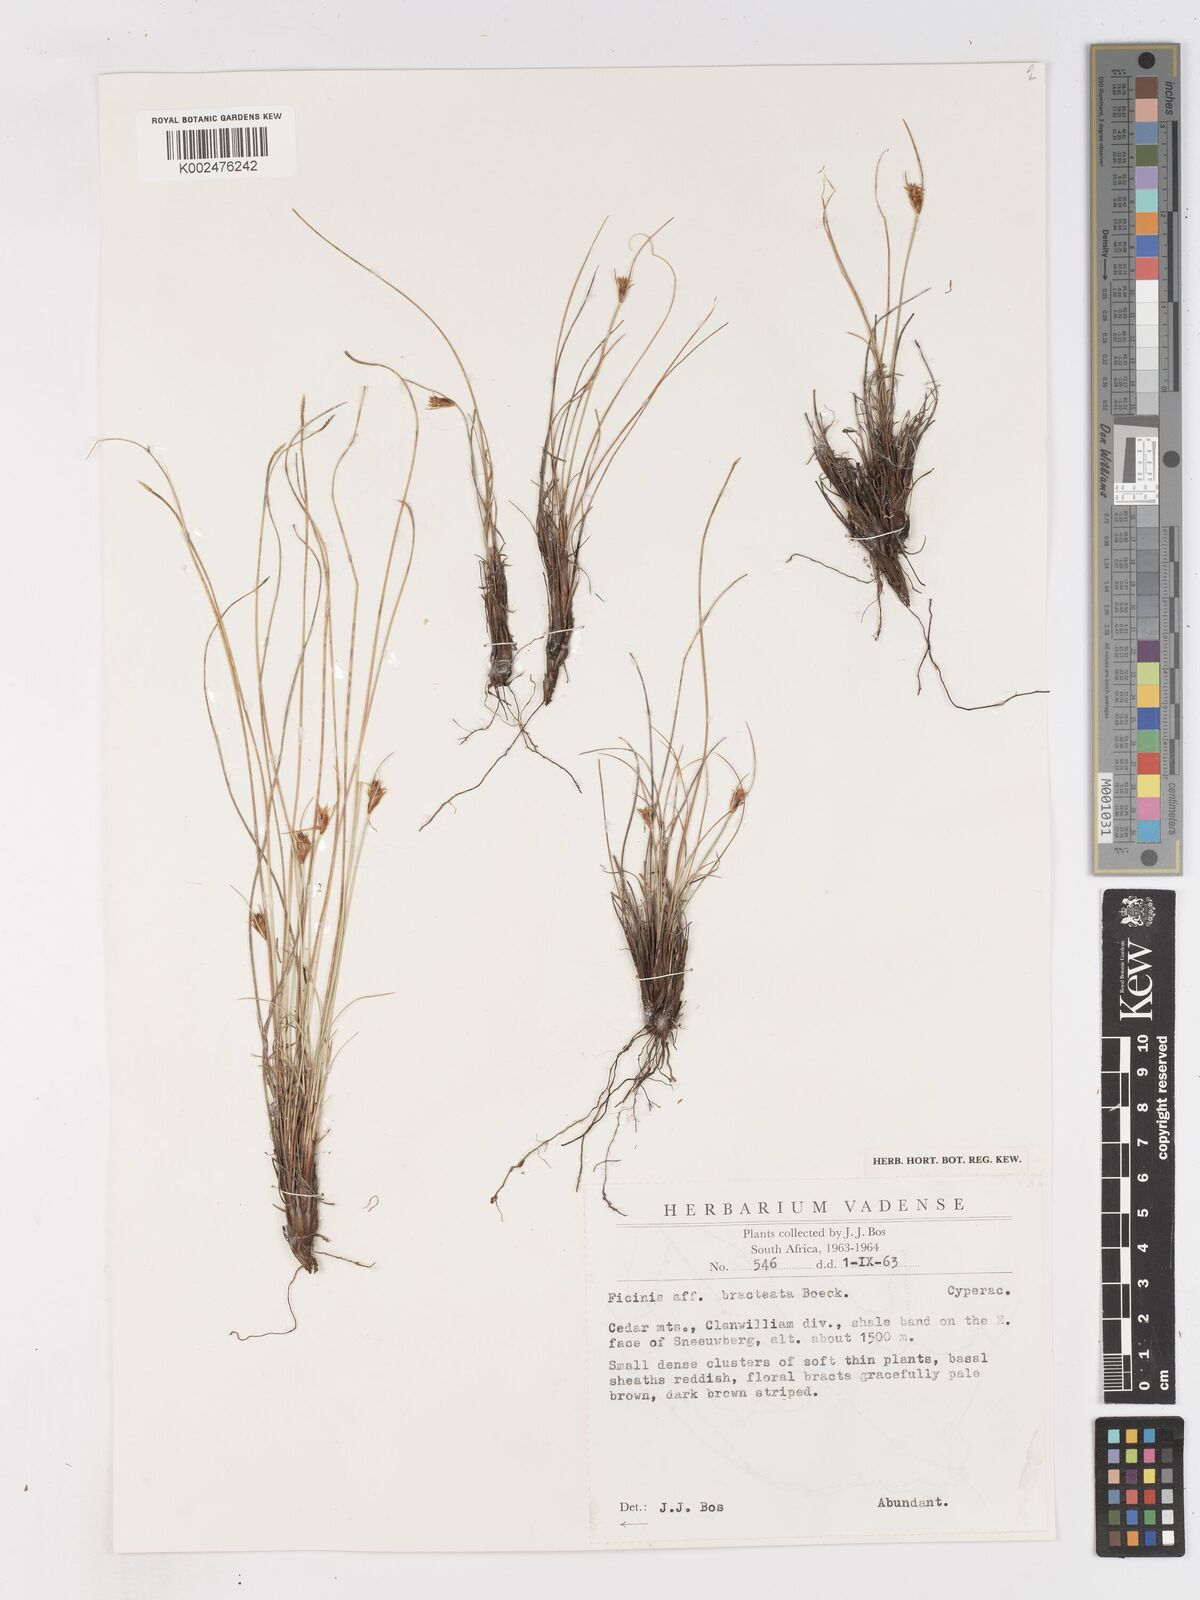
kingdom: Plantae
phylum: Tracheophyta
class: Liliopsida
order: Poales
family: Cyperaceae
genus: Ficinia
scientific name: Ficinia nigrescens
